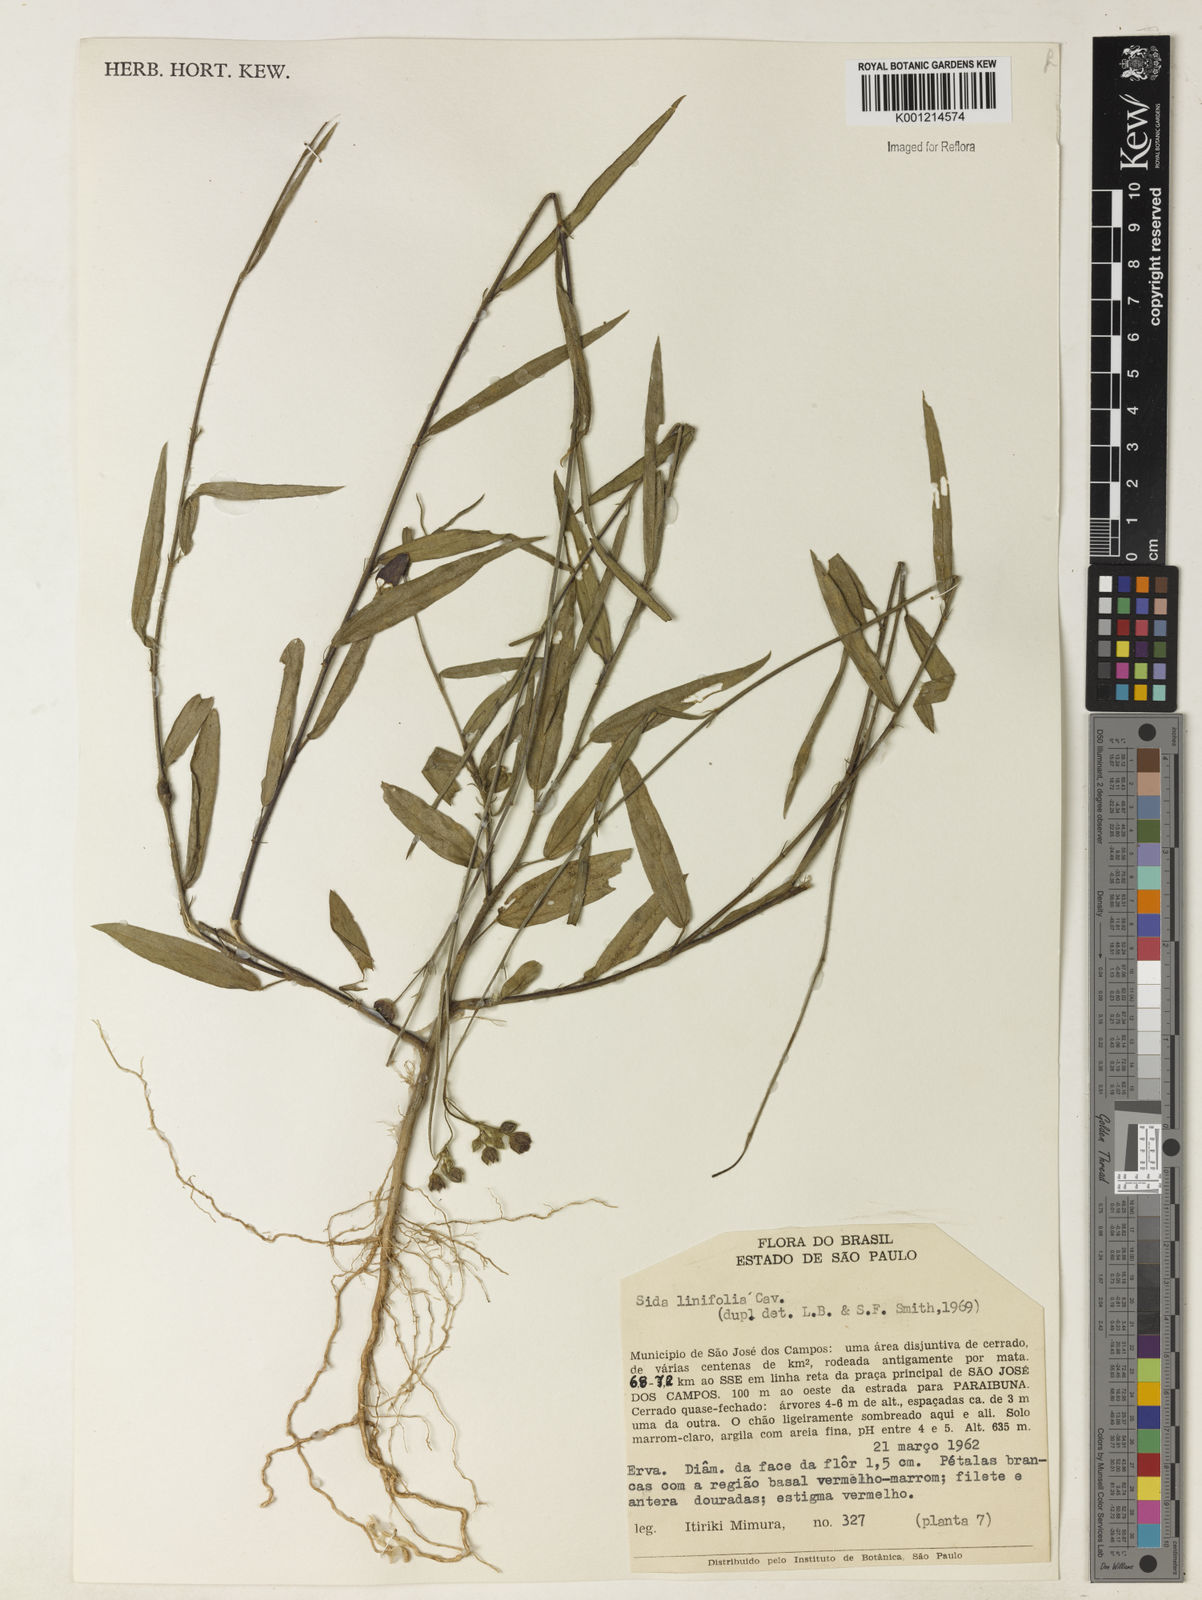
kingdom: Plantae
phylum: Tracheophyta
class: Magnoliopsida
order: Malvales
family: Malvaceae
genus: Sida
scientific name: Sida linifolia
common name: Flaxleaf fanpetals
